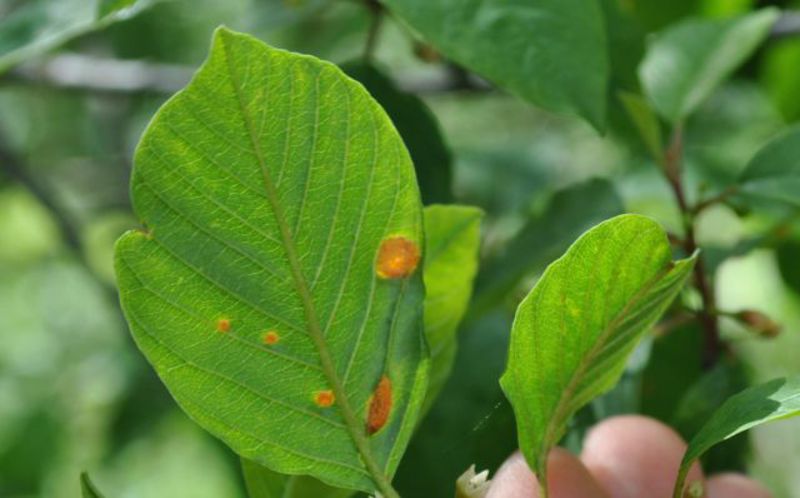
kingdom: Fungi
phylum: Basidiomycota
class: Pucciniomycetes
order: Pucciniales
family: Pucciniaceae
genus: Puccinia
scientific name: Puccinia coronata
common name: Crown rust
